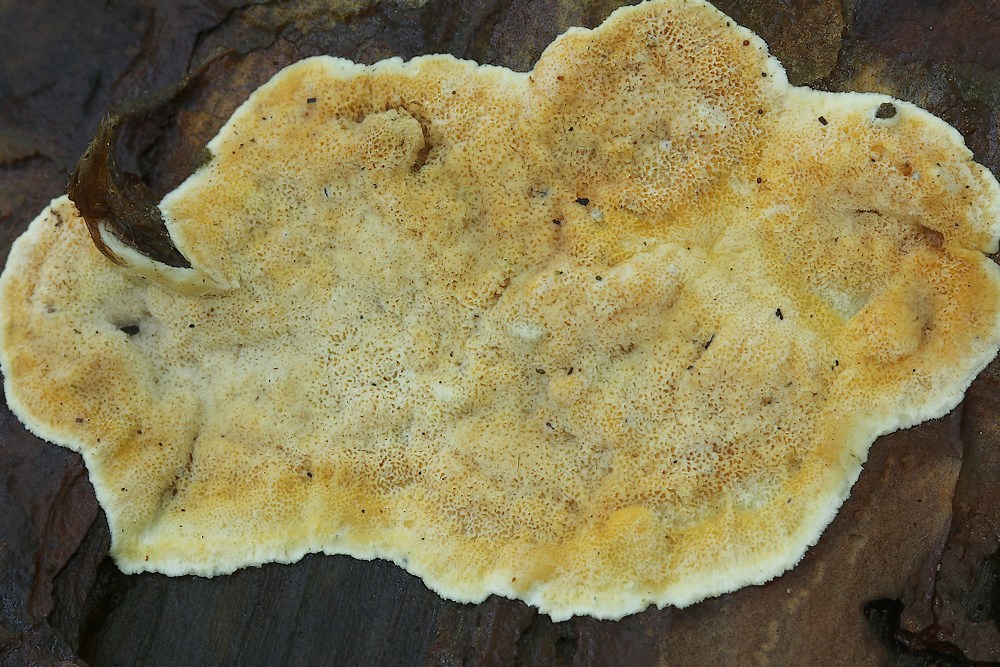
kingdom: Fungi
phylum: Basidiomycota
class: Agaricomycetes
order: Polyporales
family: Incrustoporiaceae
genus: Skeletocutis
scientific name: Skeletocutis amorpha
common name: orange krystalporesvamp
